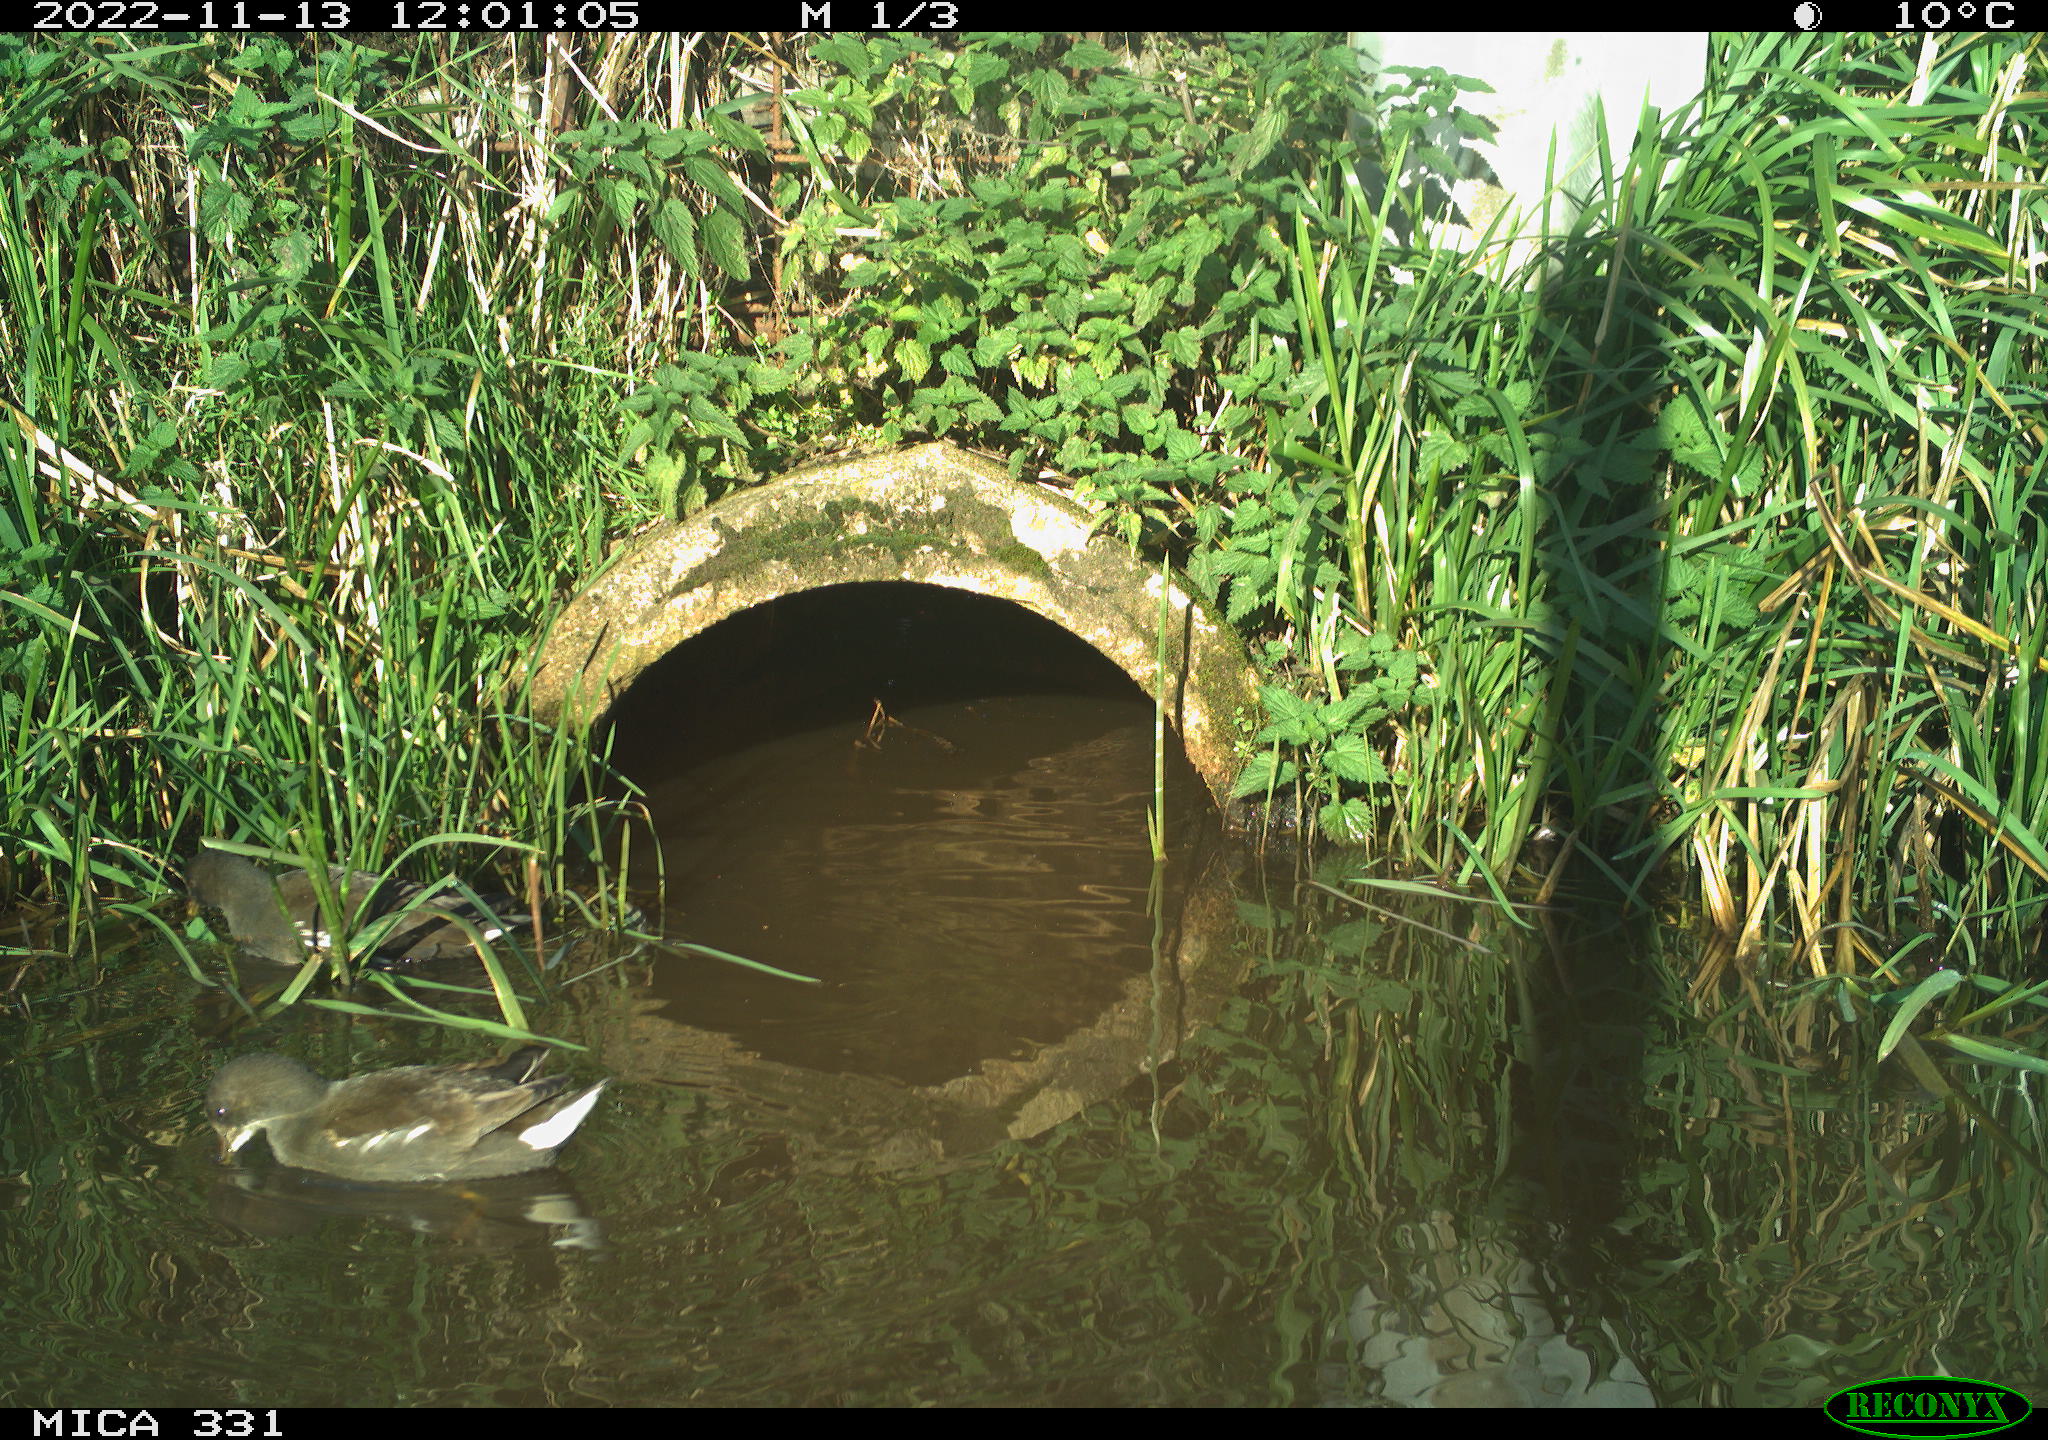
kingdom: Animalia
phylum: Chordata
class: Aves
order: Anseriformes
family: Anatidae
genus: Anas
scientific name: Anas
